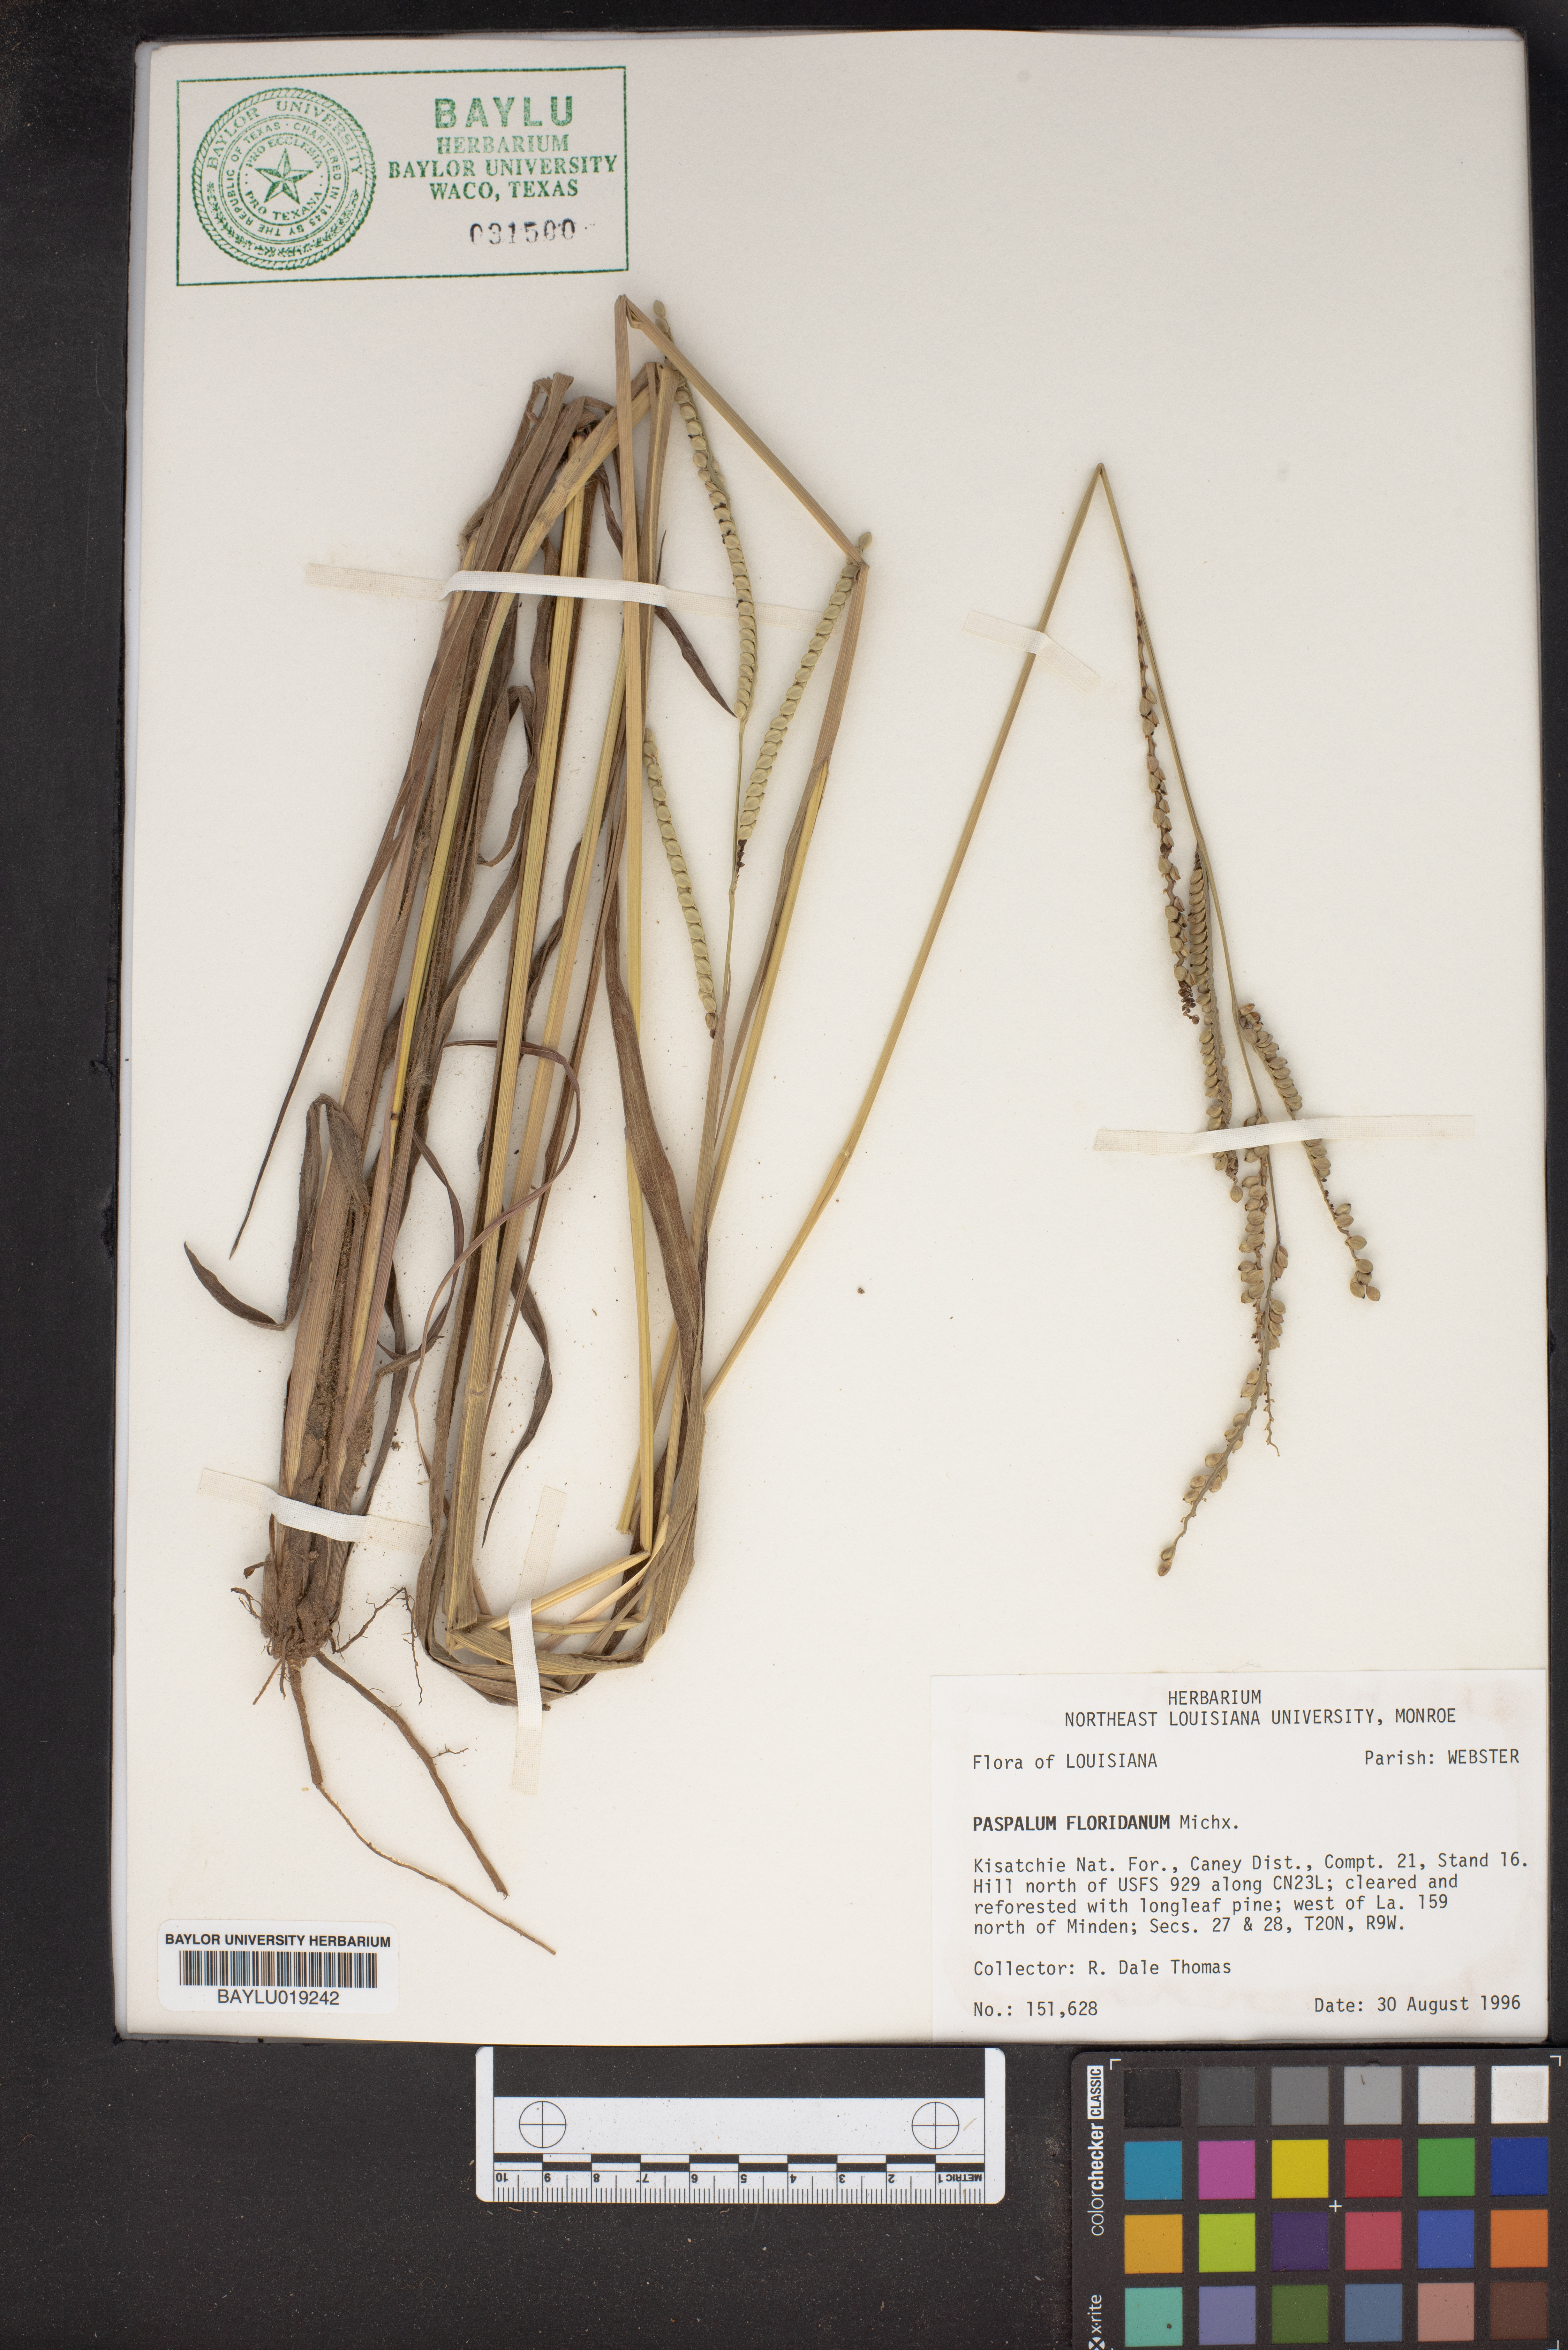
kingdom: Plantae
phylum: Tracheophyta
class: Liliopsida
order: Poales
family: Poaceae
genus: Paspalum
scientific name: Paspalum floridanum
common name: Florida paspalum
